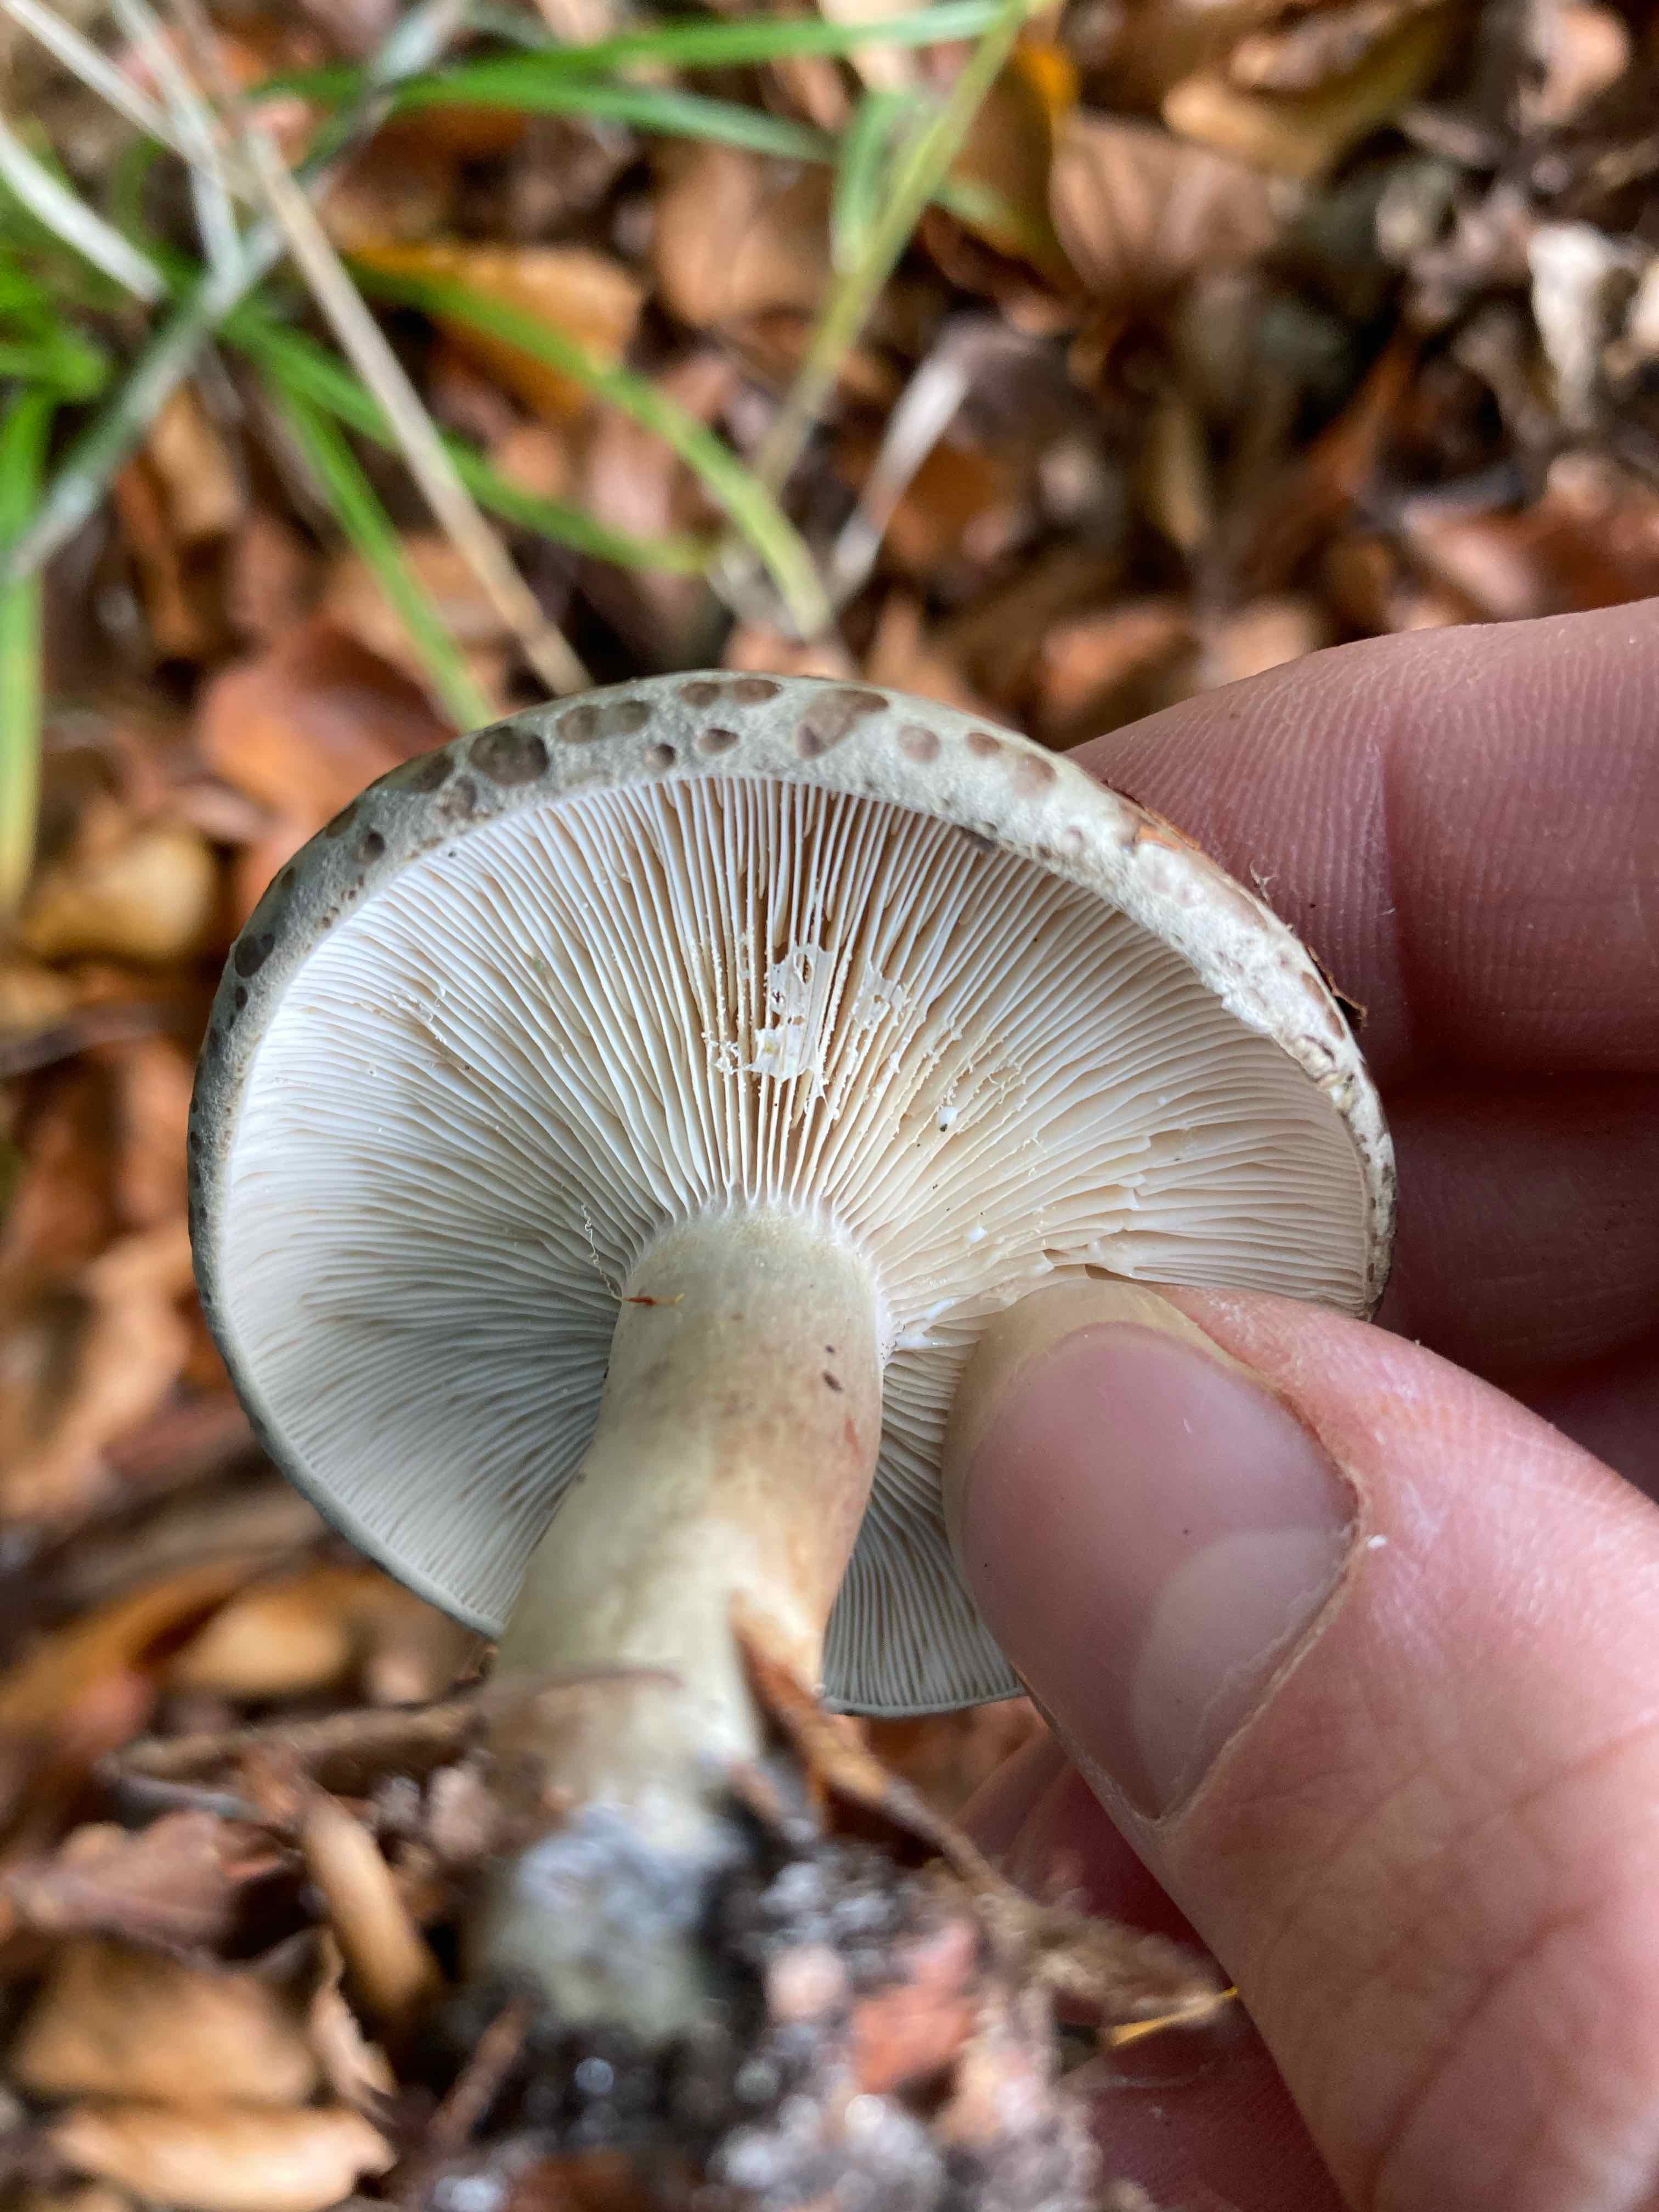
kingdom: Fungi
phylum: Basidiomycota
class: Agaricomycetes
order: Russulales
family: Russulaceae
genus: Lactarius
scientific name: Lactarius blennius
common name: dråbeplettet mælkehat
